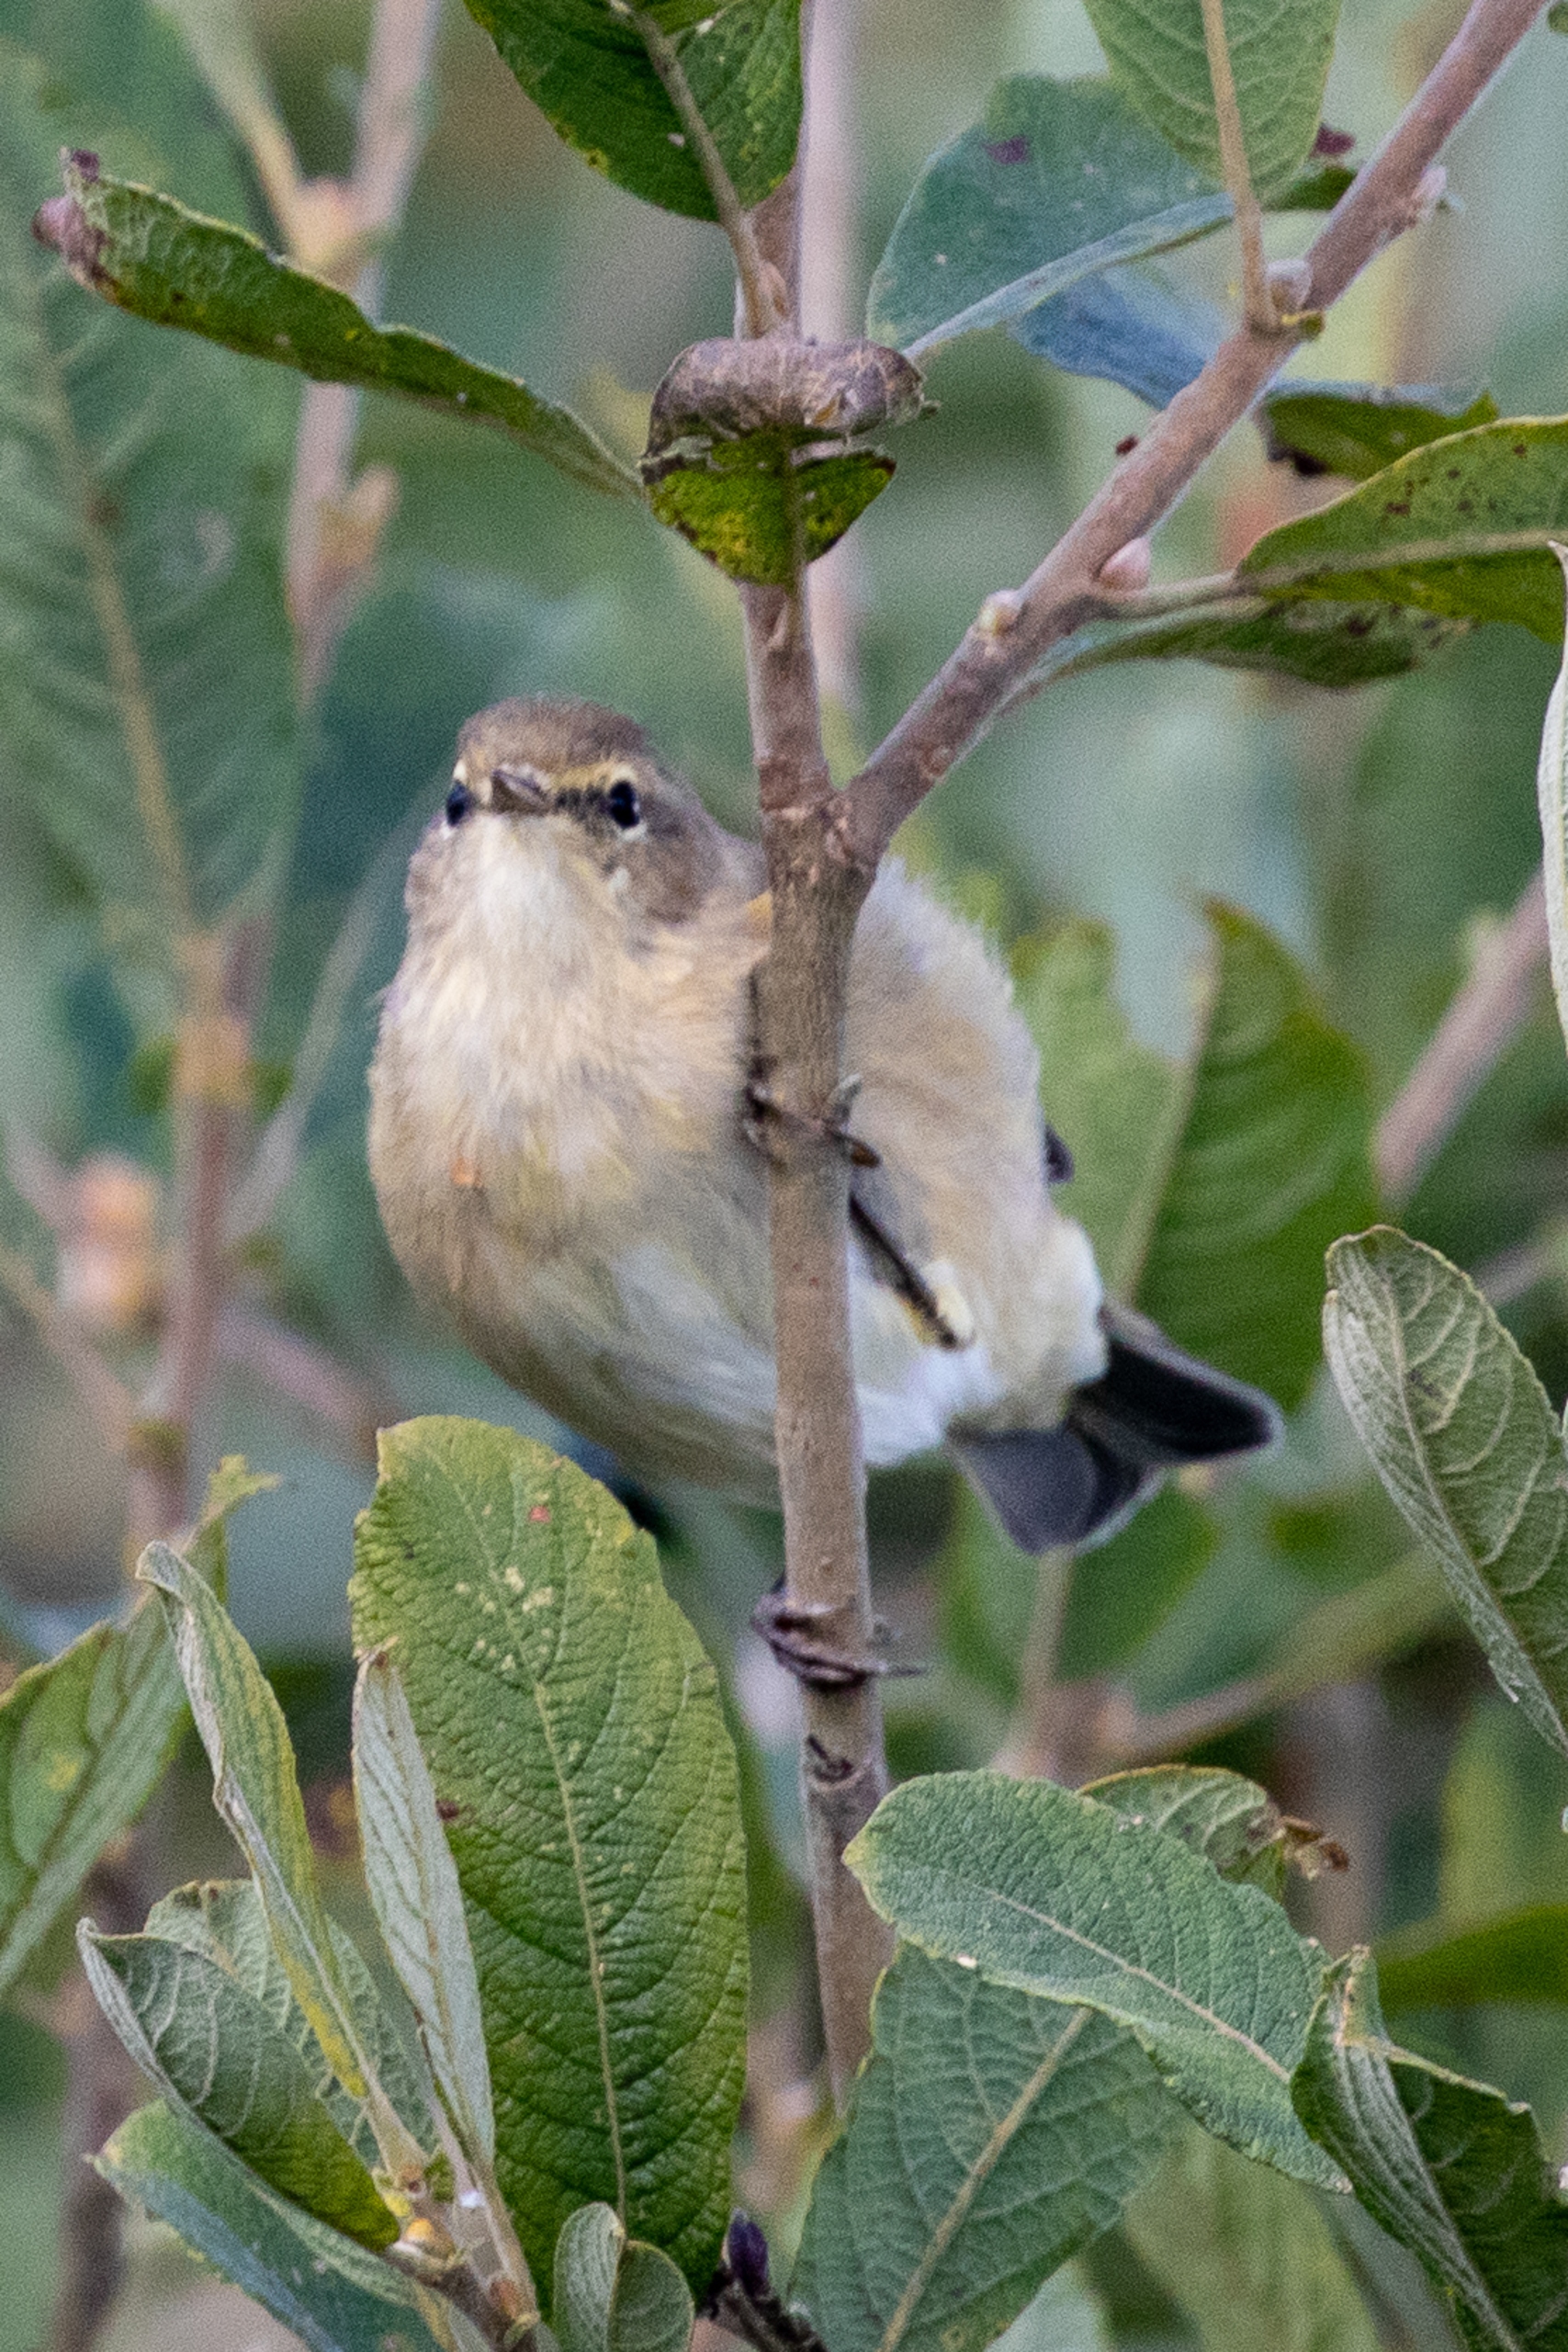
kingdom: Animalia
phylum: Chordata
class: Aves
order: Passeriformes
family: Phylloscopidae
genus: Phylloscopus
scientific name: Phylloscopus collybita
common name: Gransanger
